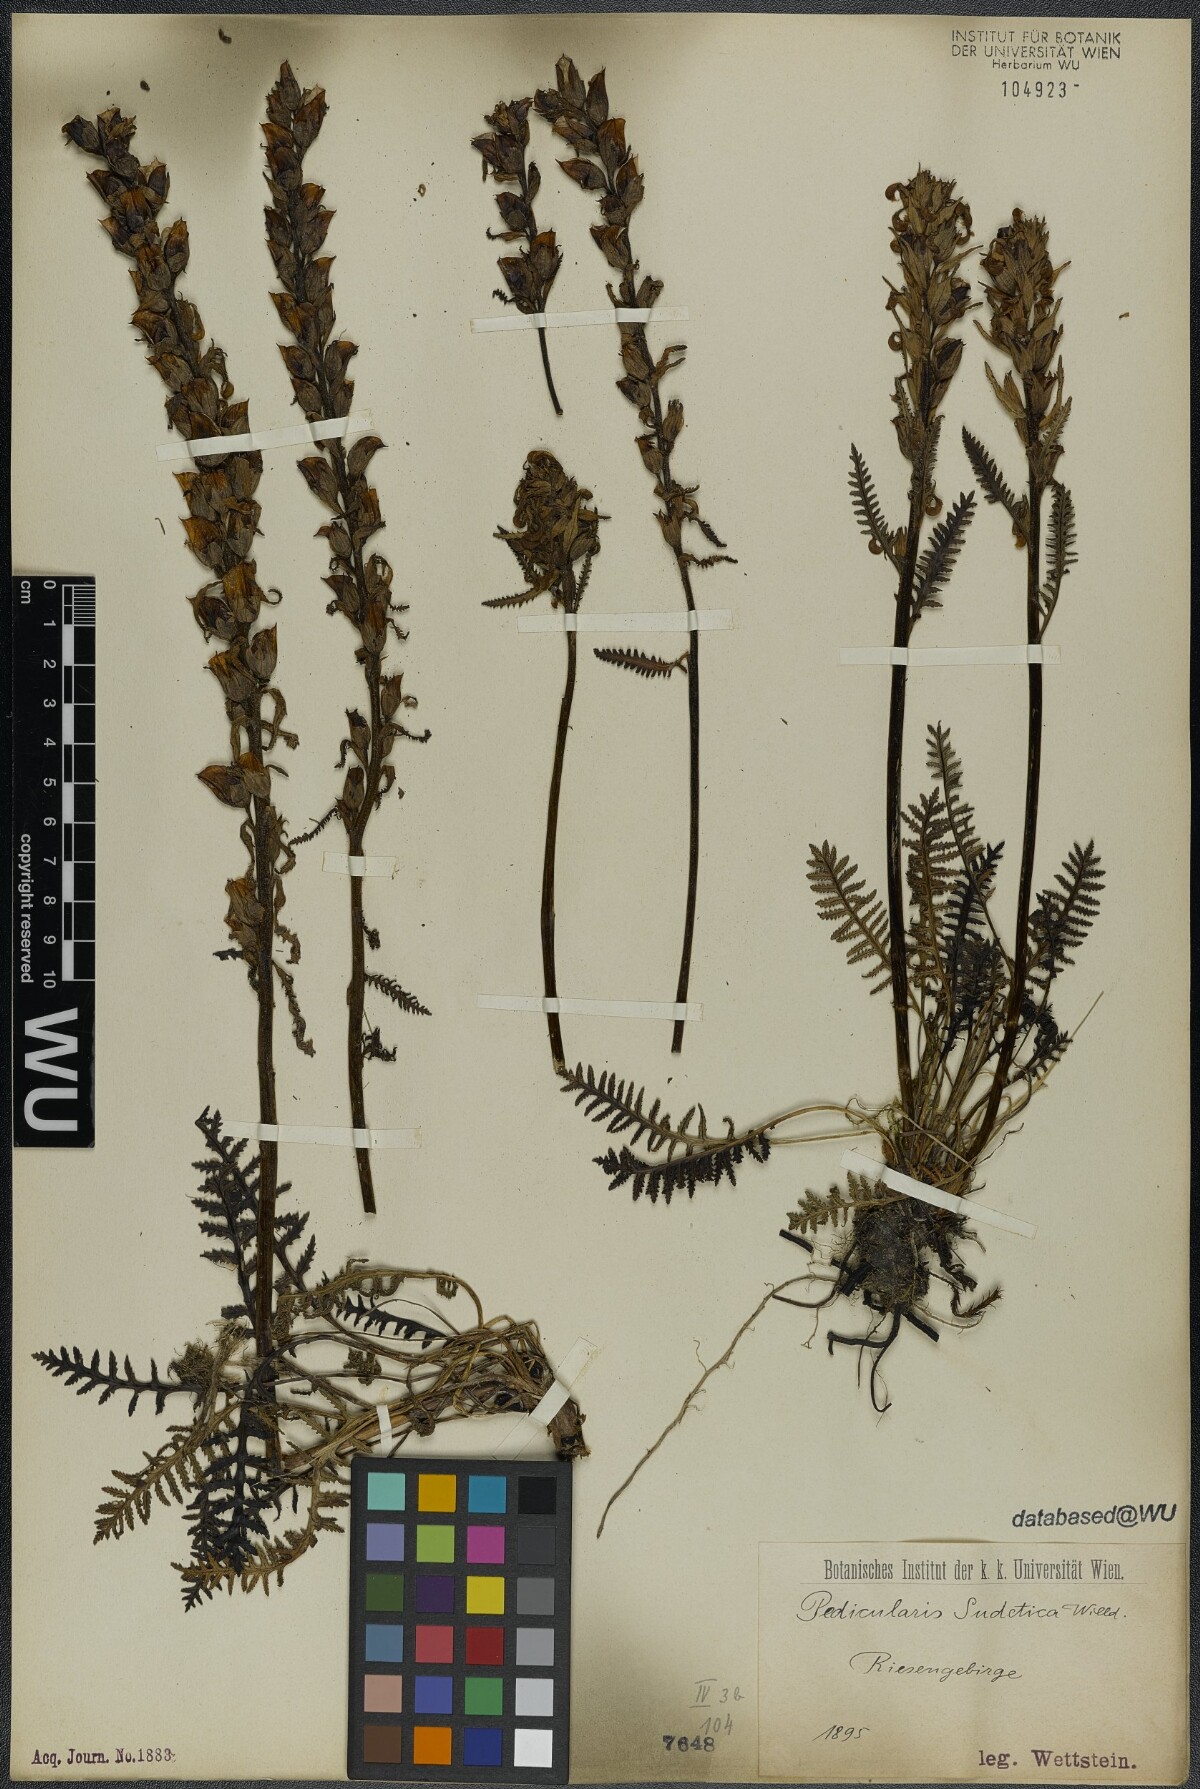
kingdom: Plantae
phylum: Tracheophyta
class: Magnoliopsida
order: Lamiales
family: Orobanchaceae
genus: Pedicularis
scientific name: Pedicularis sudetica
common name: Sudeten lousewort
